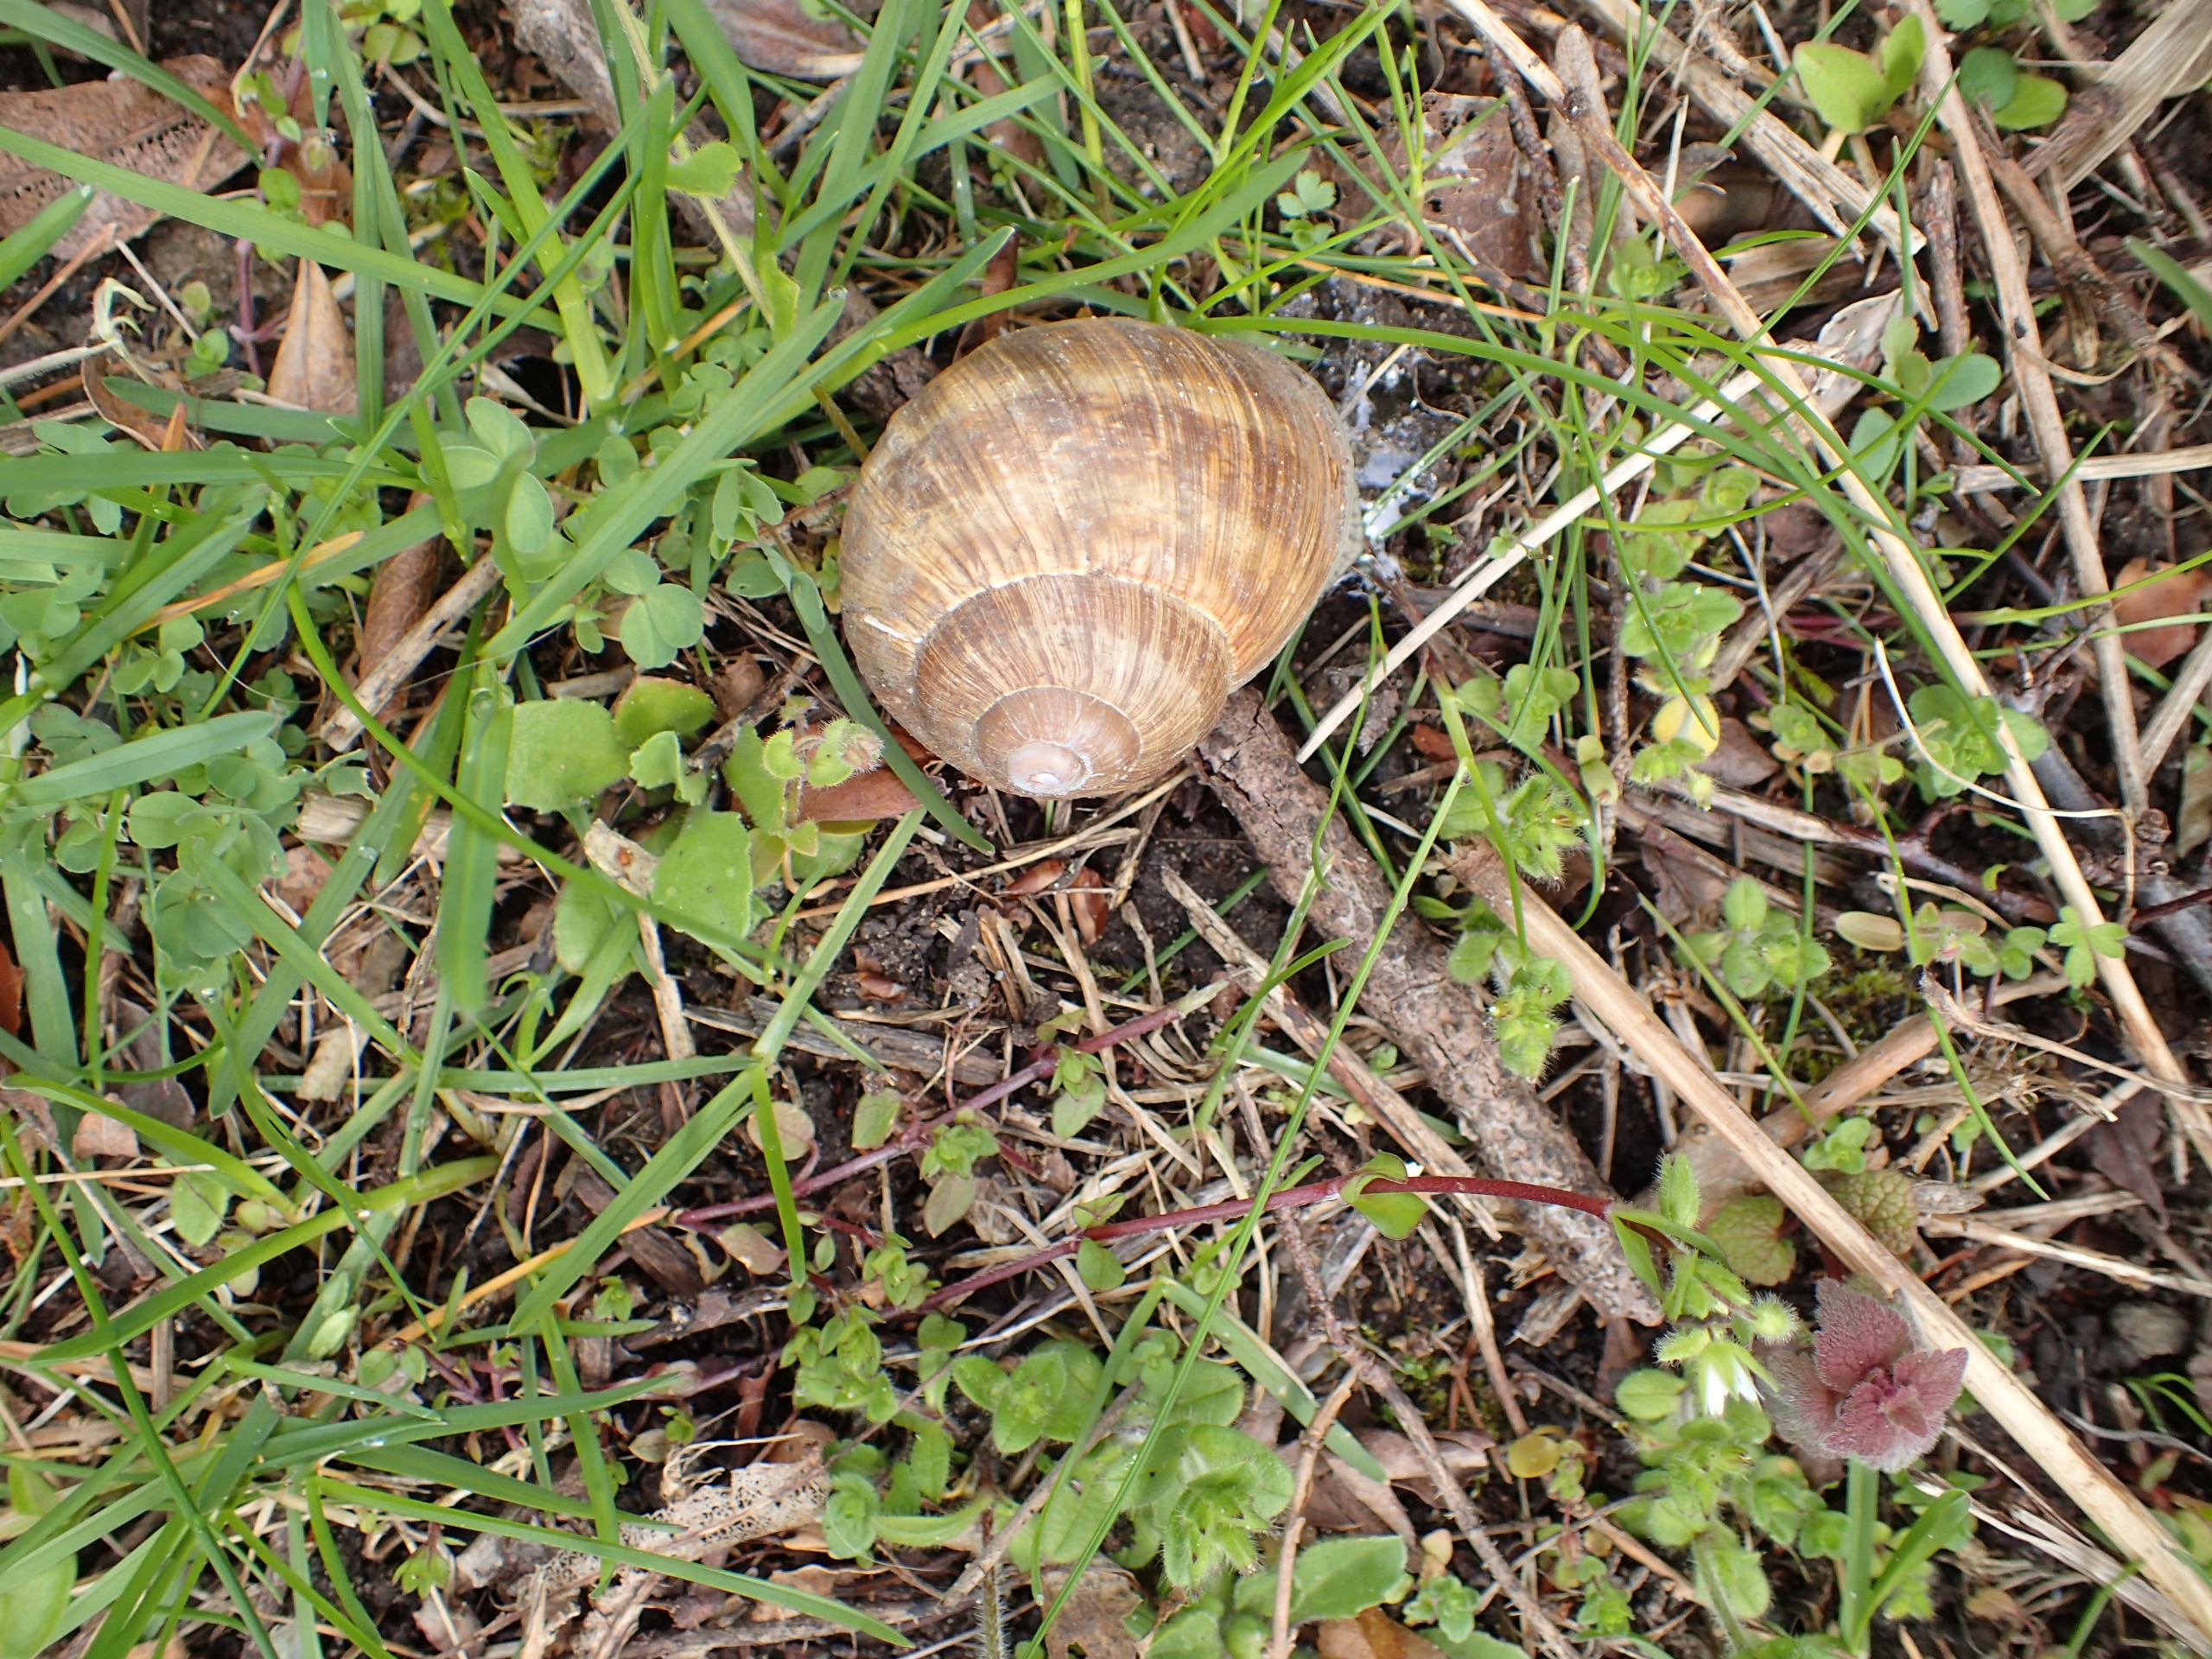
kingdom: Animalia
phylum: Mollusca
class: Gastropoda
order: Stylommatophora
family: Helicidae
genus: Helix
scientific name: Helix pomatia
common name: Vinbjergsnegl
